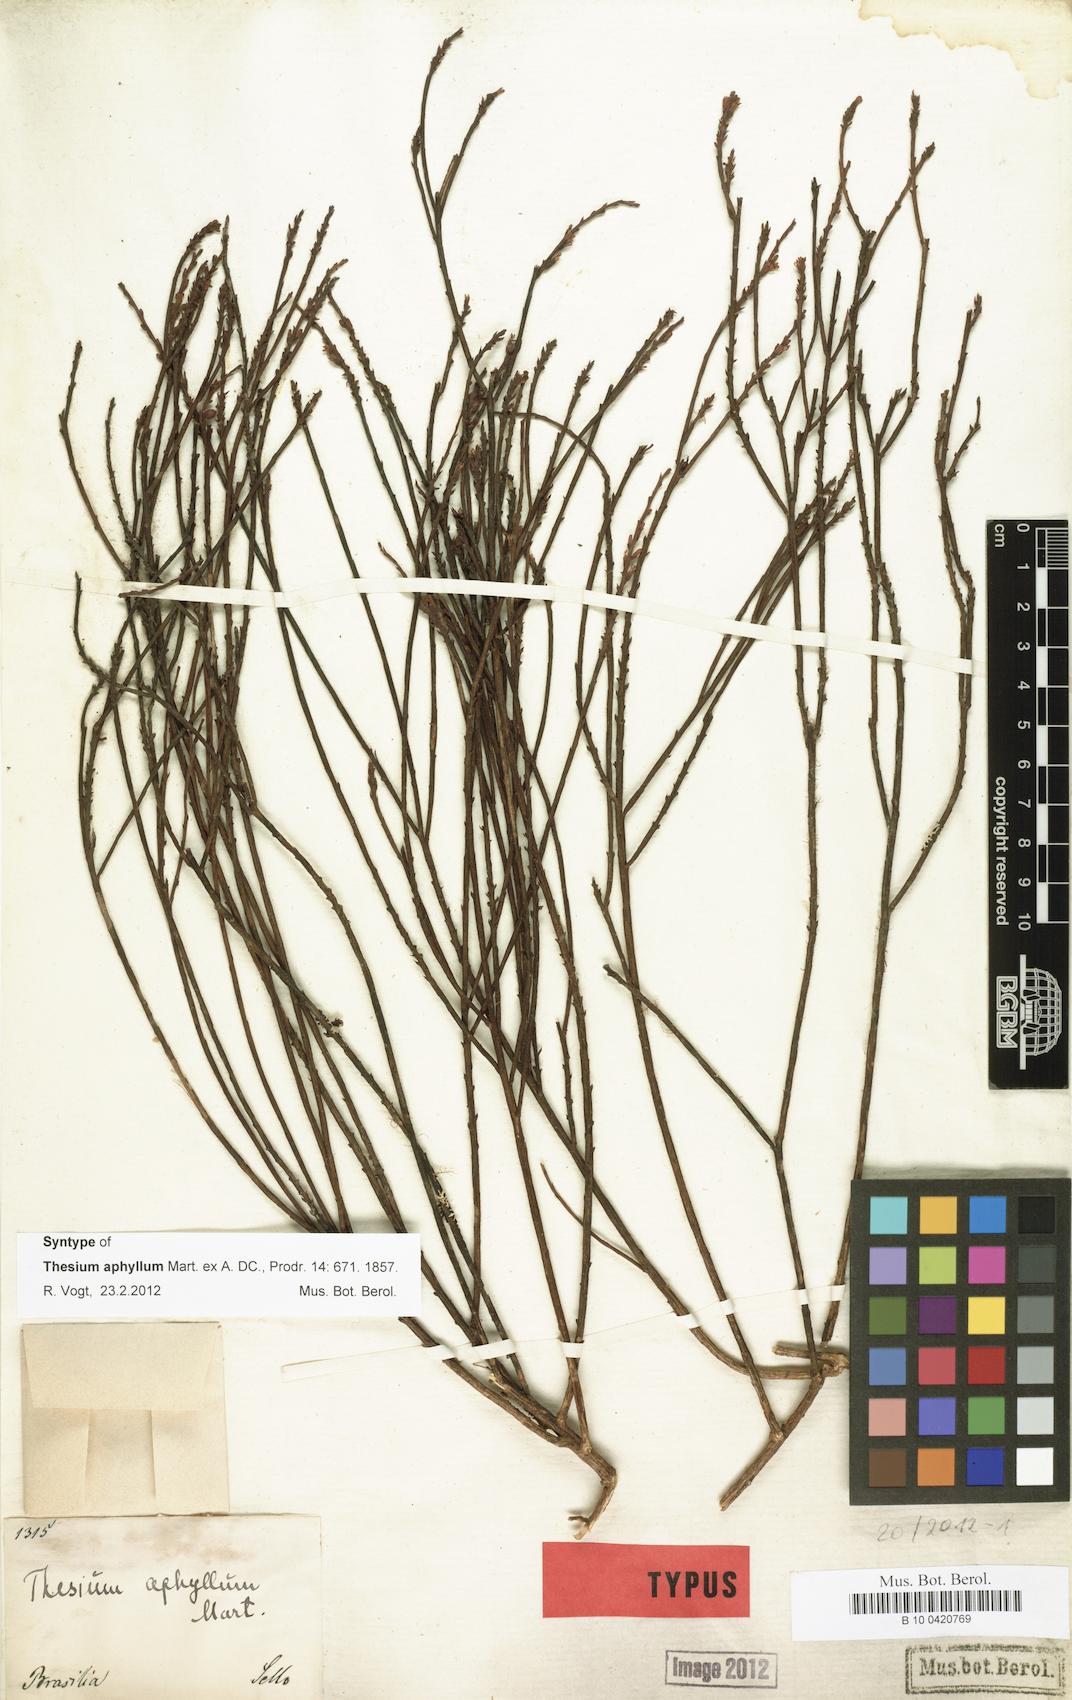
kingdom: Plantae
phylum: Tracheophyta
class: Magnoliopsida
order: Santalales
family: Thesiaceae
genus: Austroamericium
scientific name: Austroamericium aphyllum
